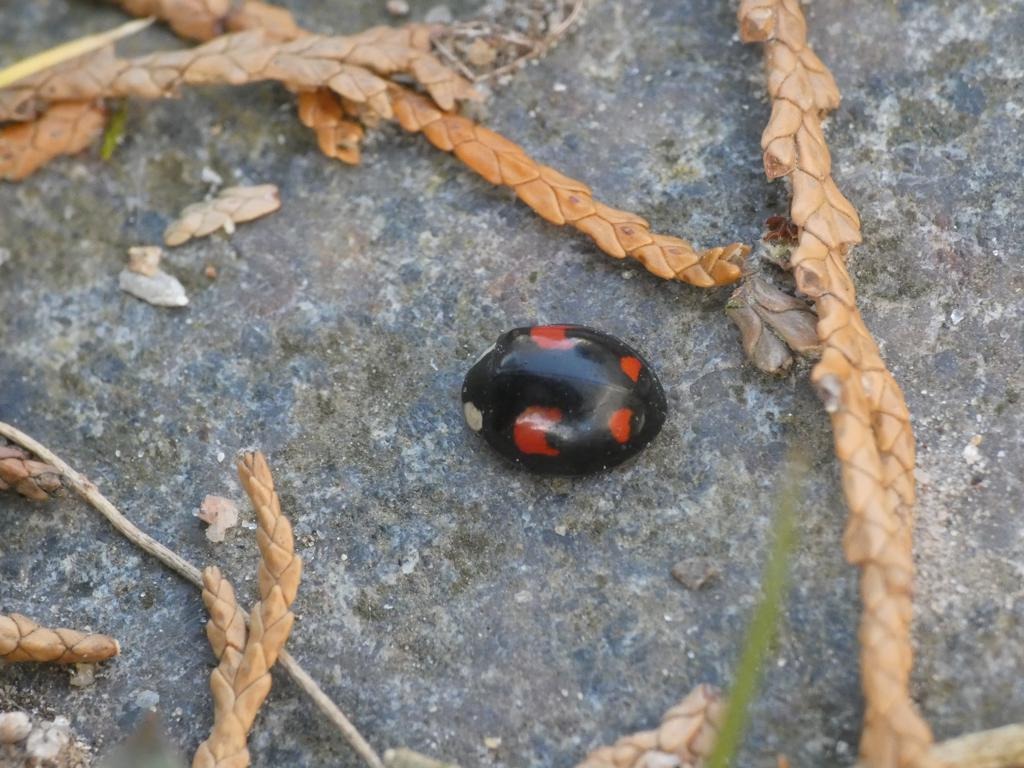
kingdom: Animalia
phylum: Arthropoda
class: Insecta
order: Coleoptera
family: Coccinellidae
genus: Harmonia
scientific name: Harmonia axyridis
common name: Harlekinmariehøne
